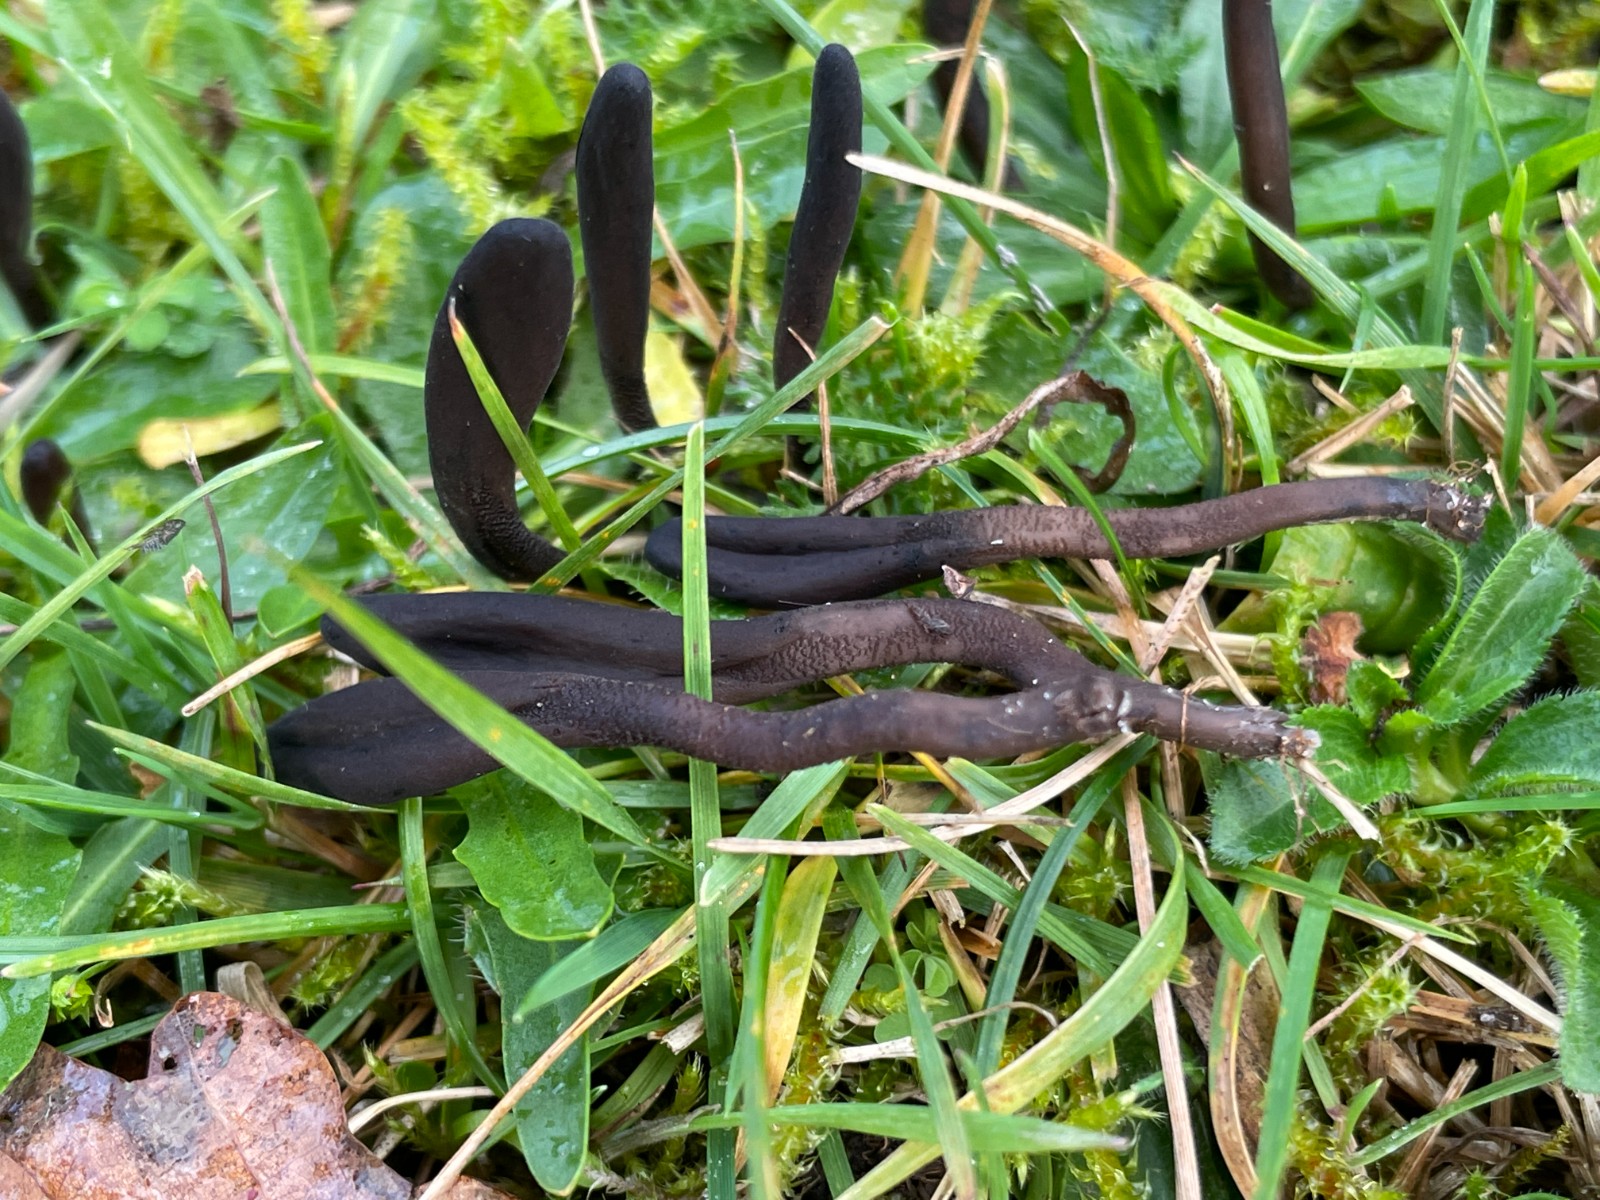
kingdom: Fungi
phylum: Ascomycota
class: Geoglossomycetes
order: Geoglossales
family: Geoglossaceae
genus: Geoglossum
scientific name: Geoglossum
